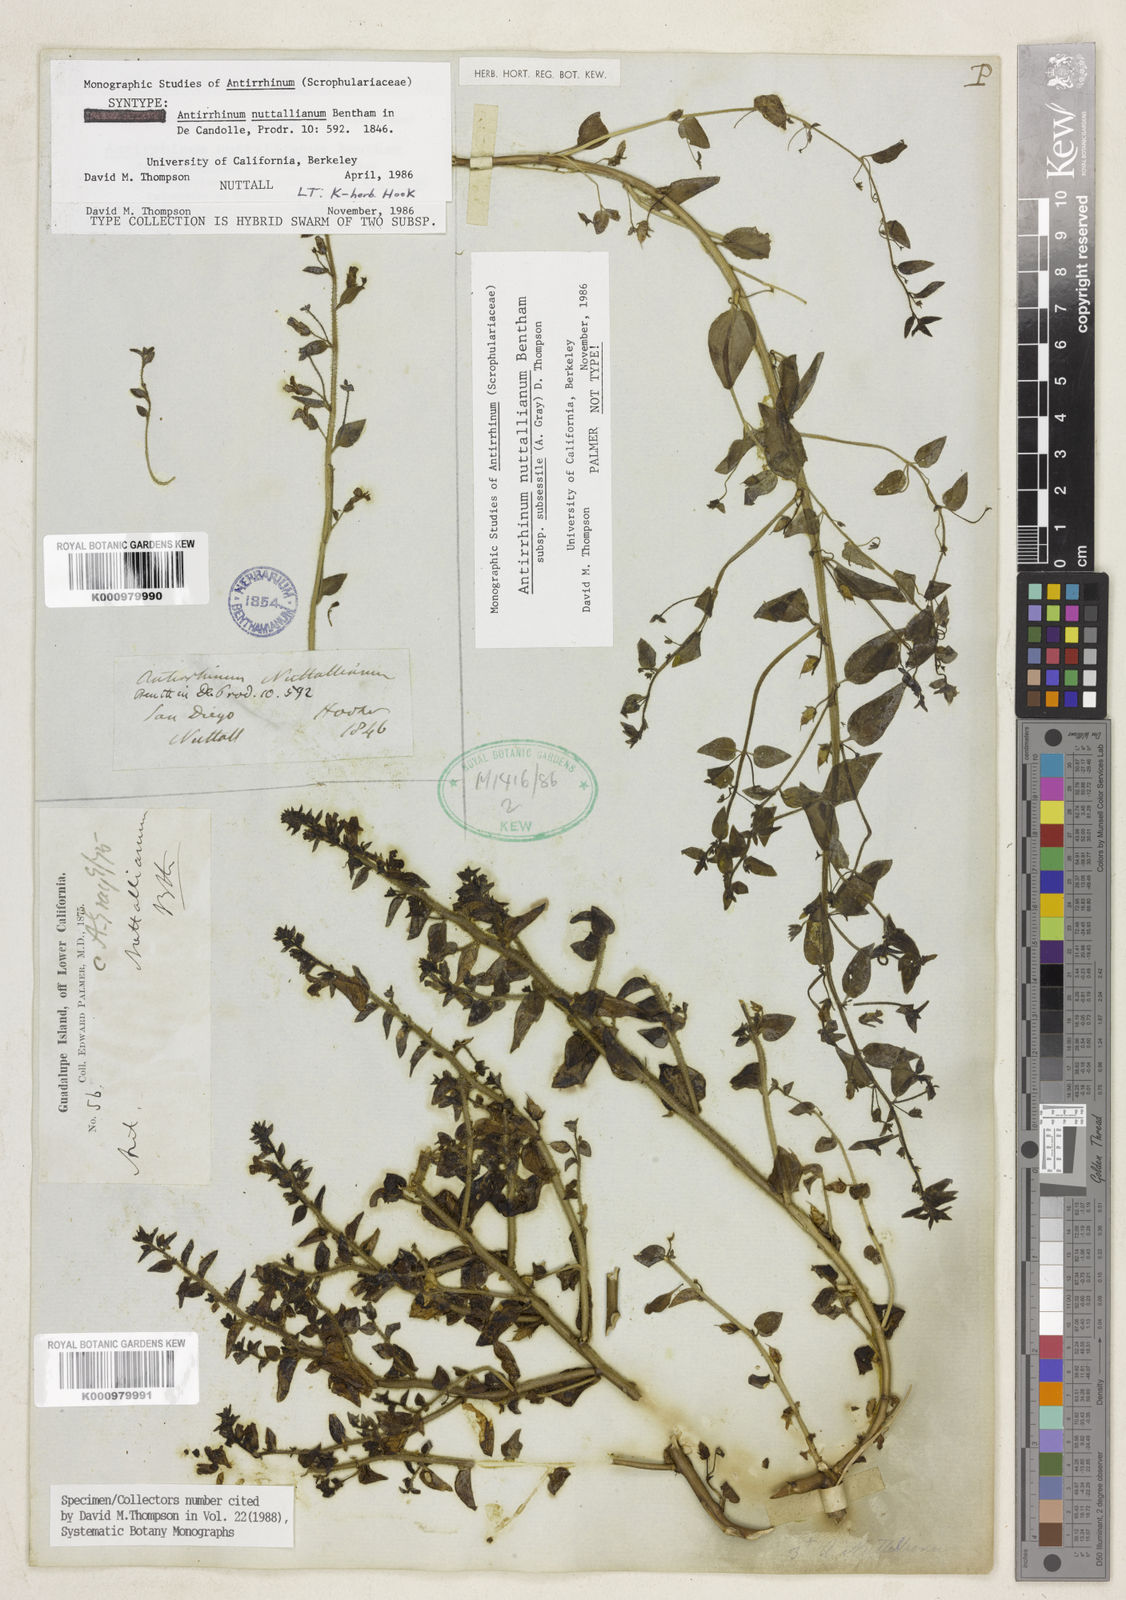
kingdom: Plantae
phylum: Tracheophyta
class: Magnoliopsida
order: Lamiales
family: Plantaginaceae
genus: Antirrhinum
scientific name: Antirrhinum
